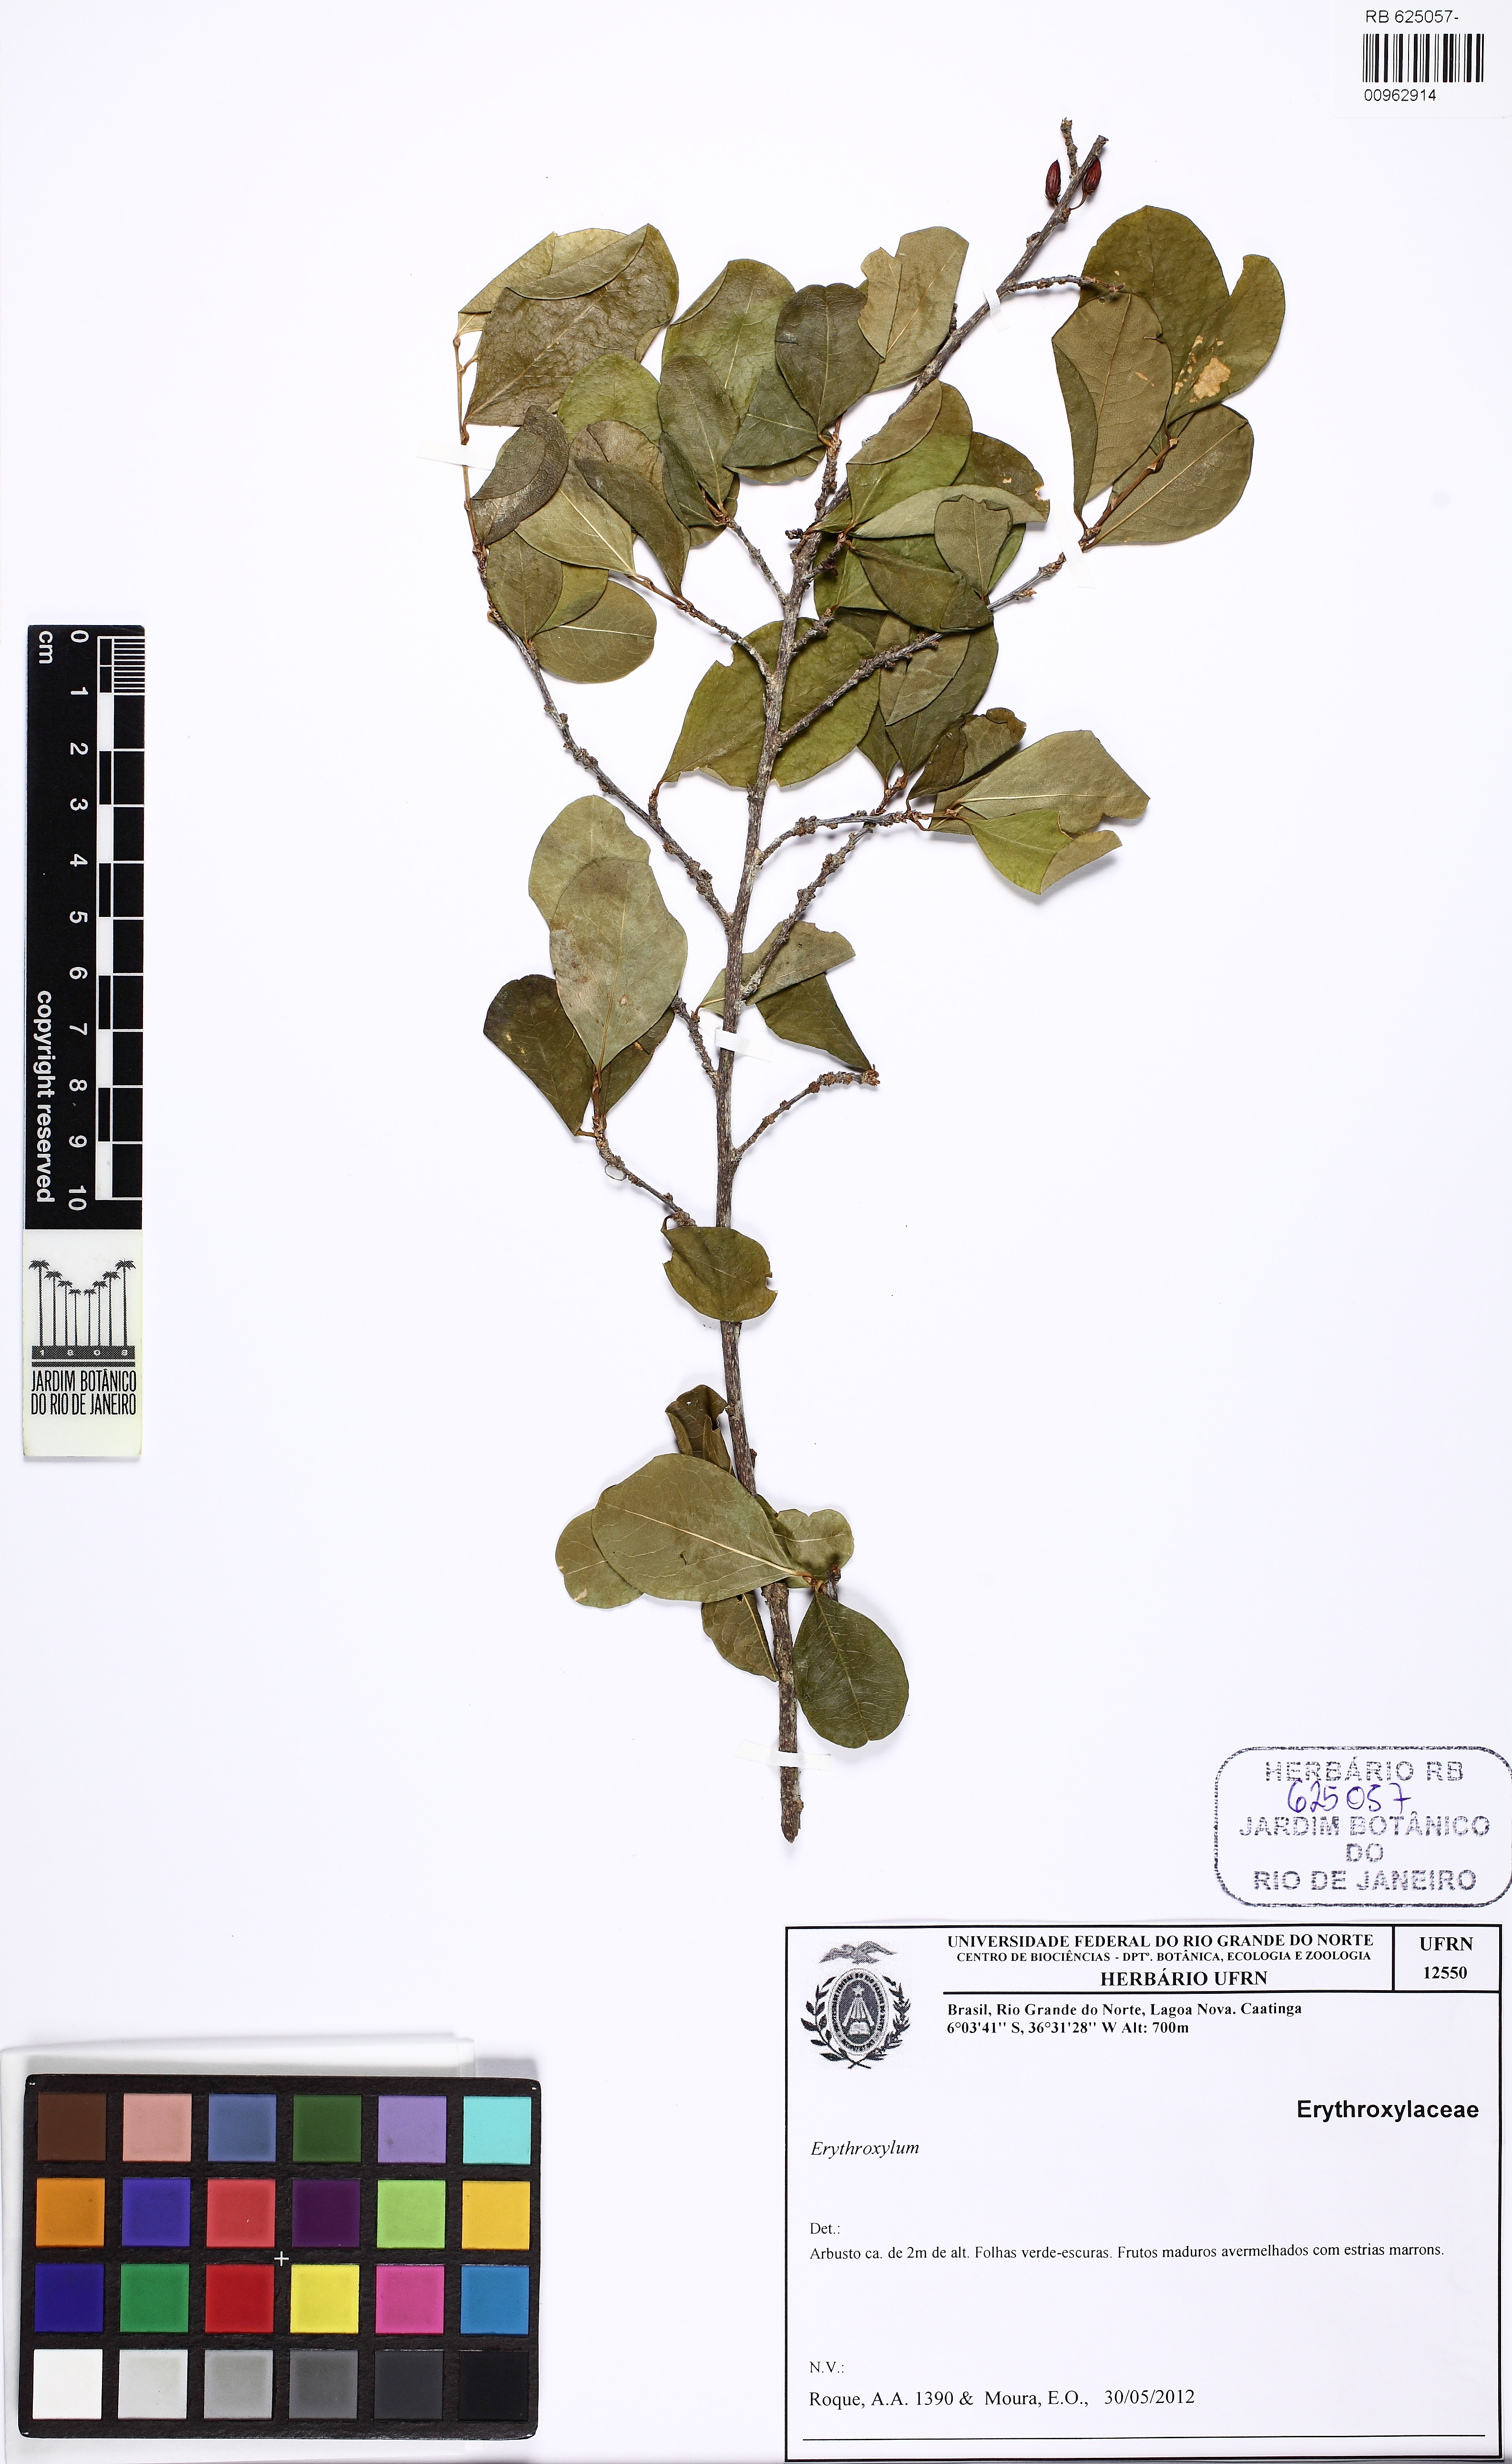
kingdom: Plantae
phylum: Tracheophyta
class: Magnoliopsida
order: Malpighiales
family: Erythroxylaceae
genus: Erythroxylum
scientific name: Erythroxylum subrotundum
